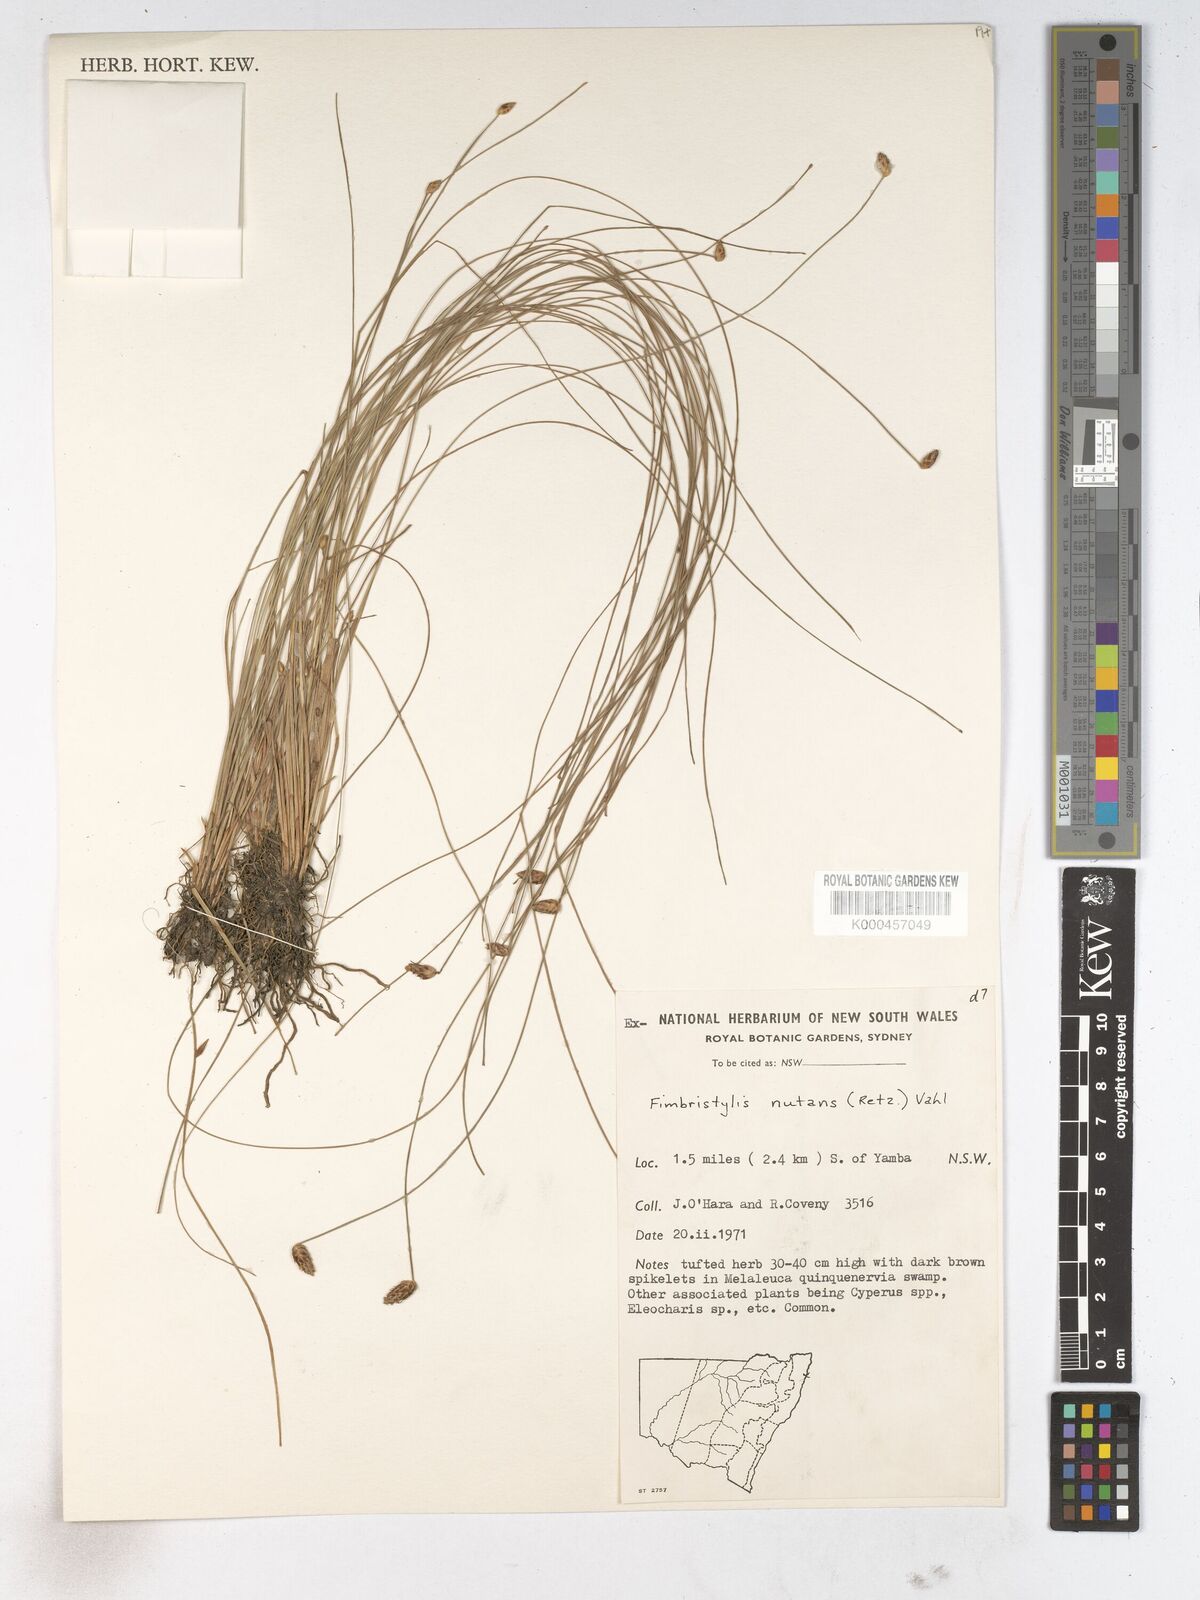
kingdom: Plantae
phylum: Tracheophyta
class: Liliopsida
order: Poales
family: Cyperaceae
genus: Fimbristylis
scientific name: Fimbristylis nutans
